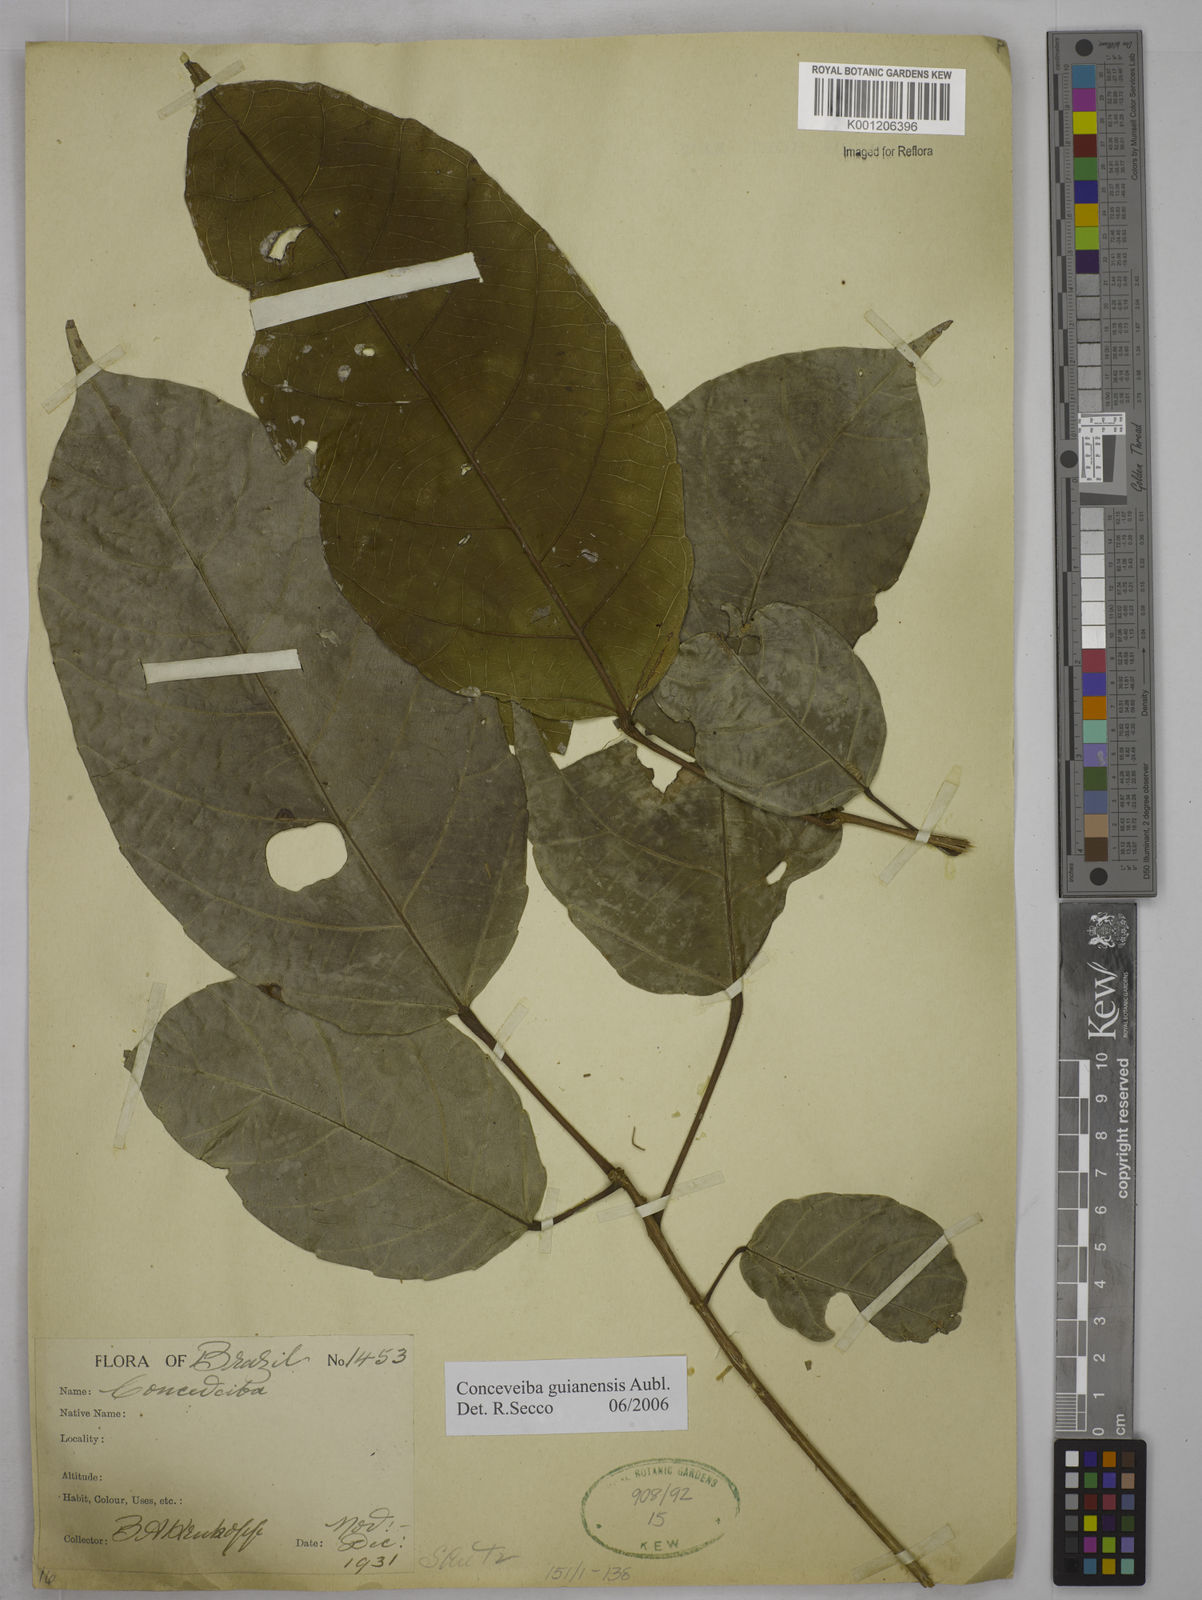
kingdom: Plantae
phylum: Tracheophyta
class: Magnoliopsida
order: Malpighiales
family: Euphorbiaceae
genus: Conceveiba
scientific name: Conceveiba guianensis
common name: Poatoru
